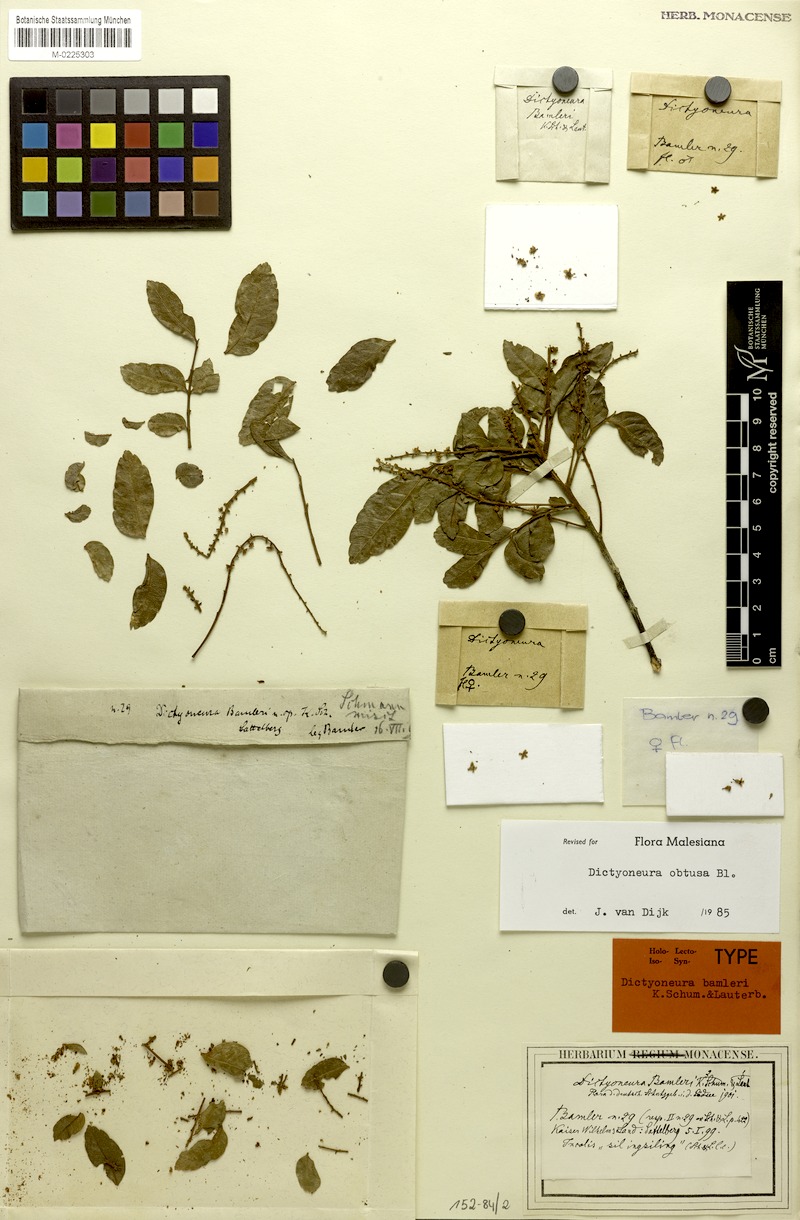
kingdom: Plantae
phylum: Tracheophyta
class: Magnoliopsida
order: Sapindales
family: Sapindaceae
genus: Dictyoneura
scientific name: Dictyoneura obtusa
